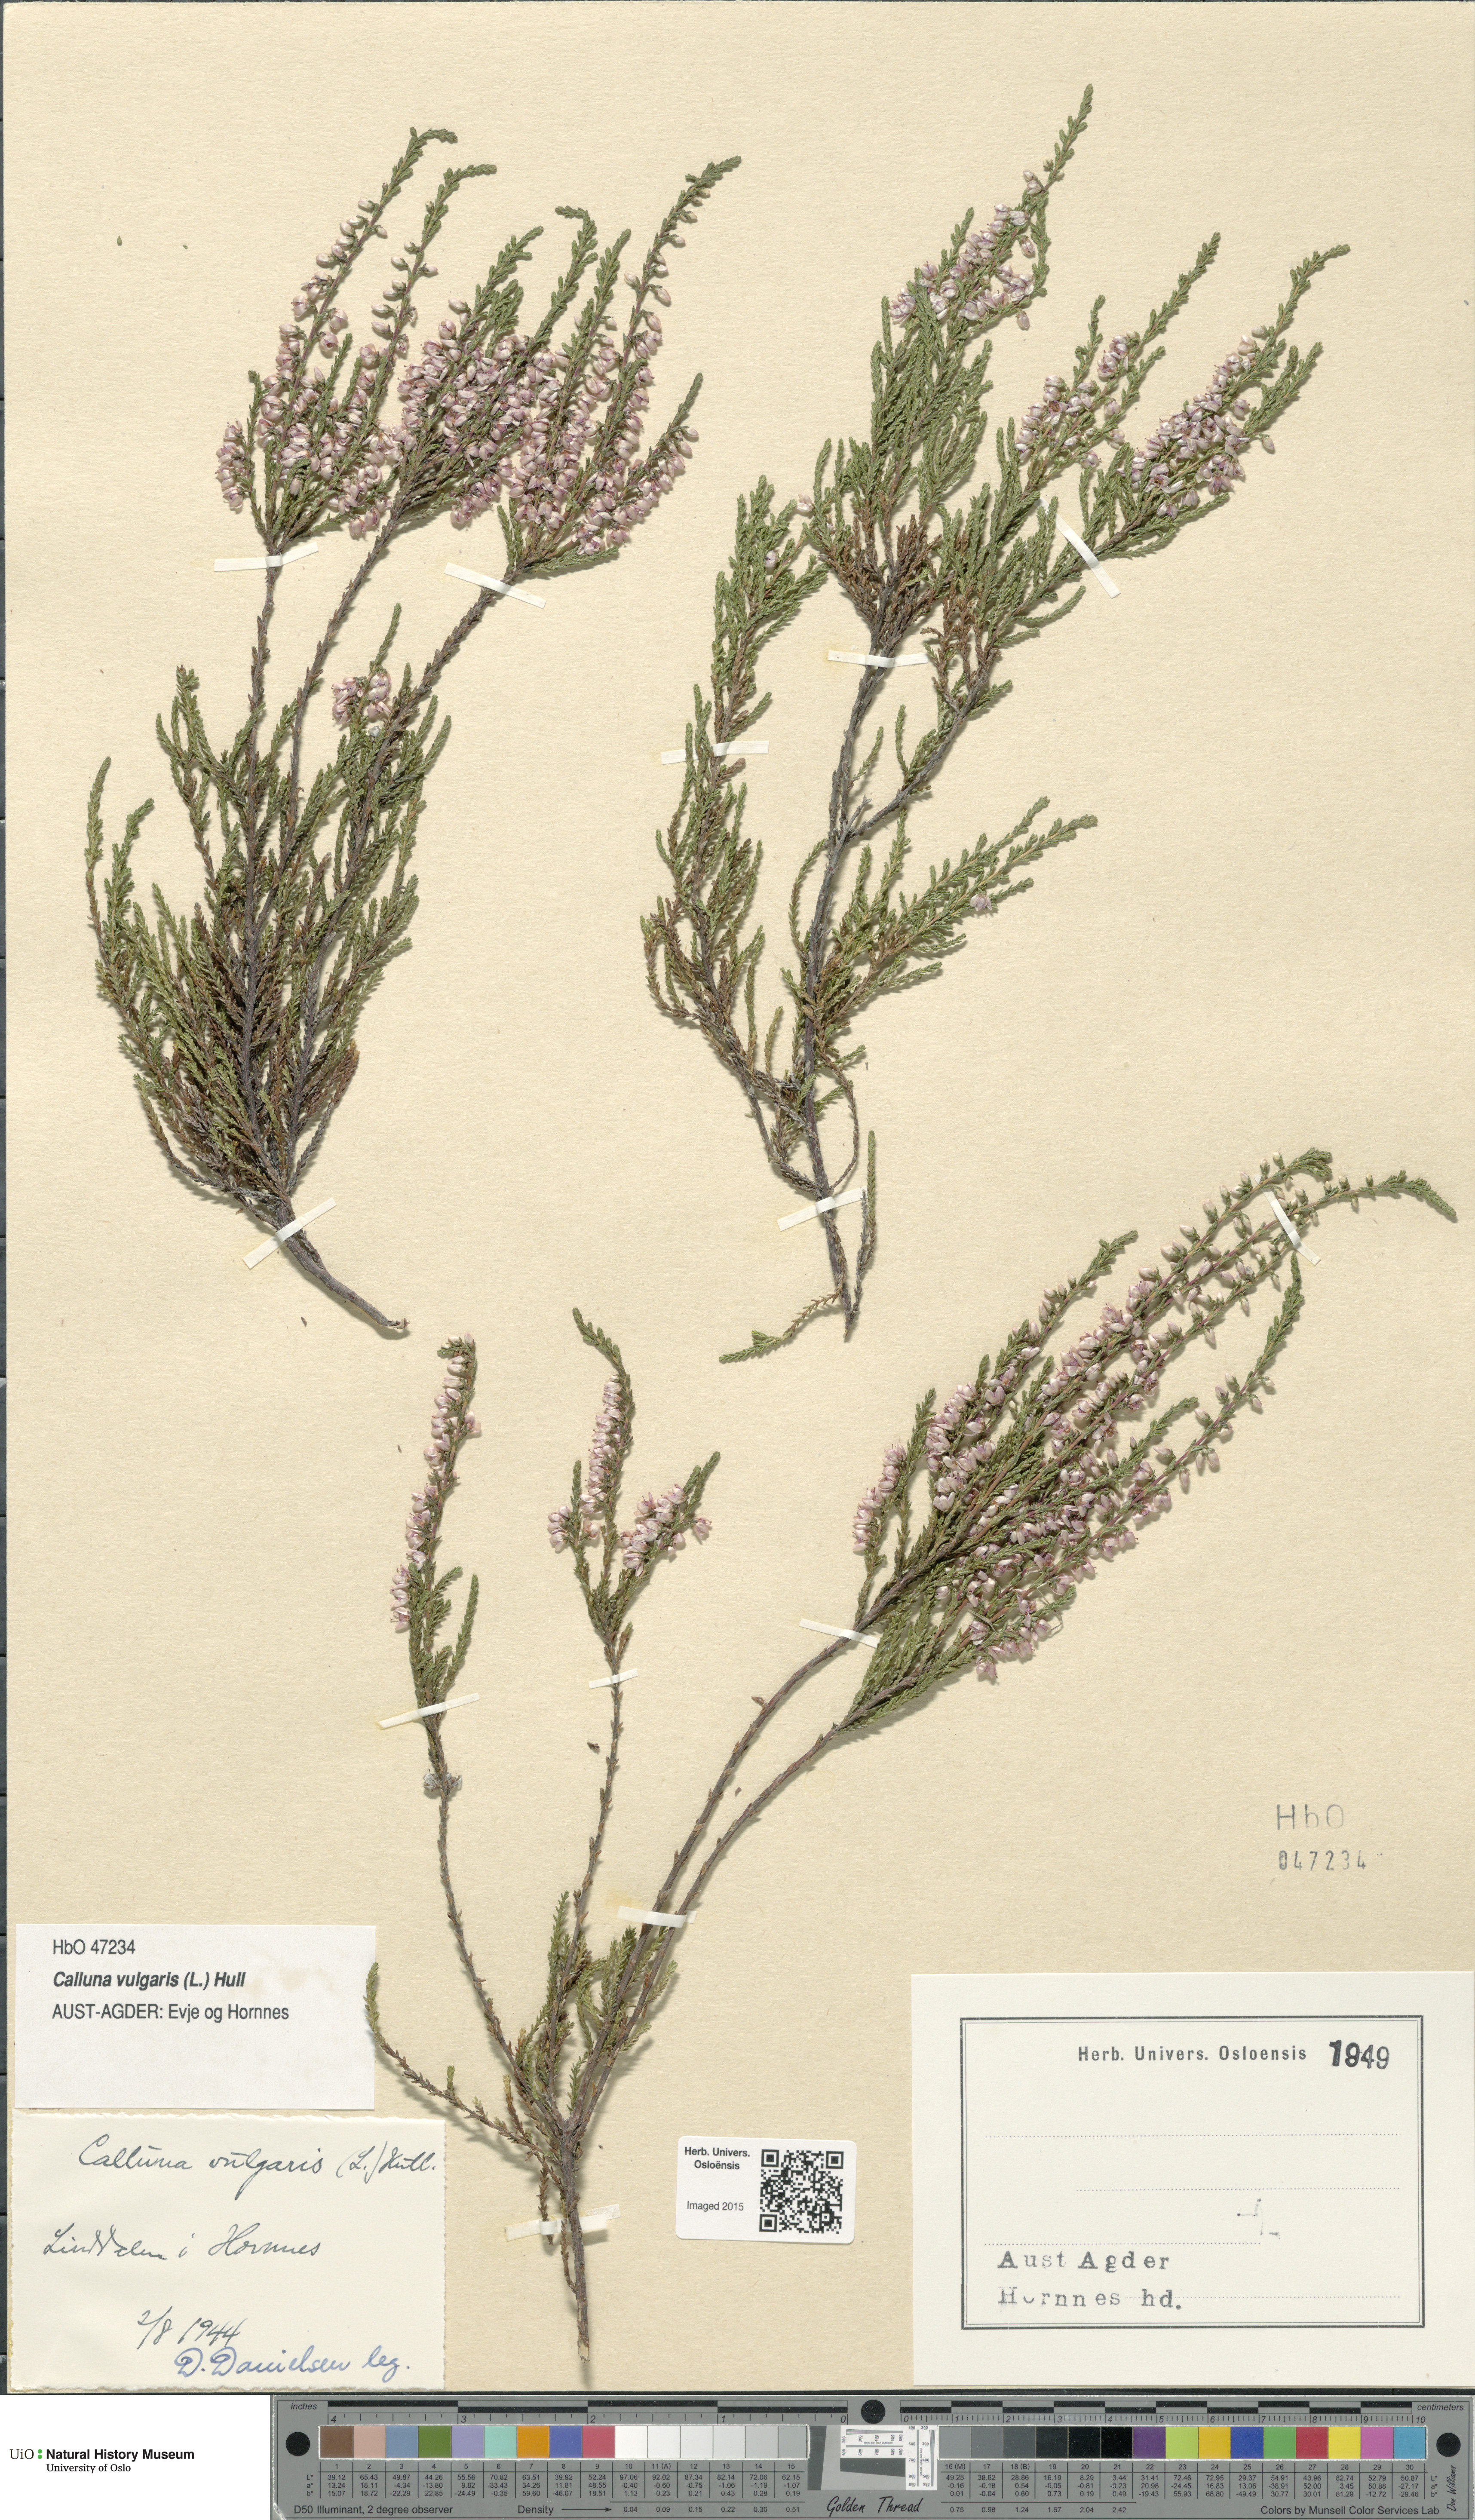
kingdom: Plantae
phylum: Tracheophyta
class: Magnoliopsida
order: Ericales
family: Ericaceae
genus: Calluna
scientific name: Calluna vulgaris
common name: Heather
